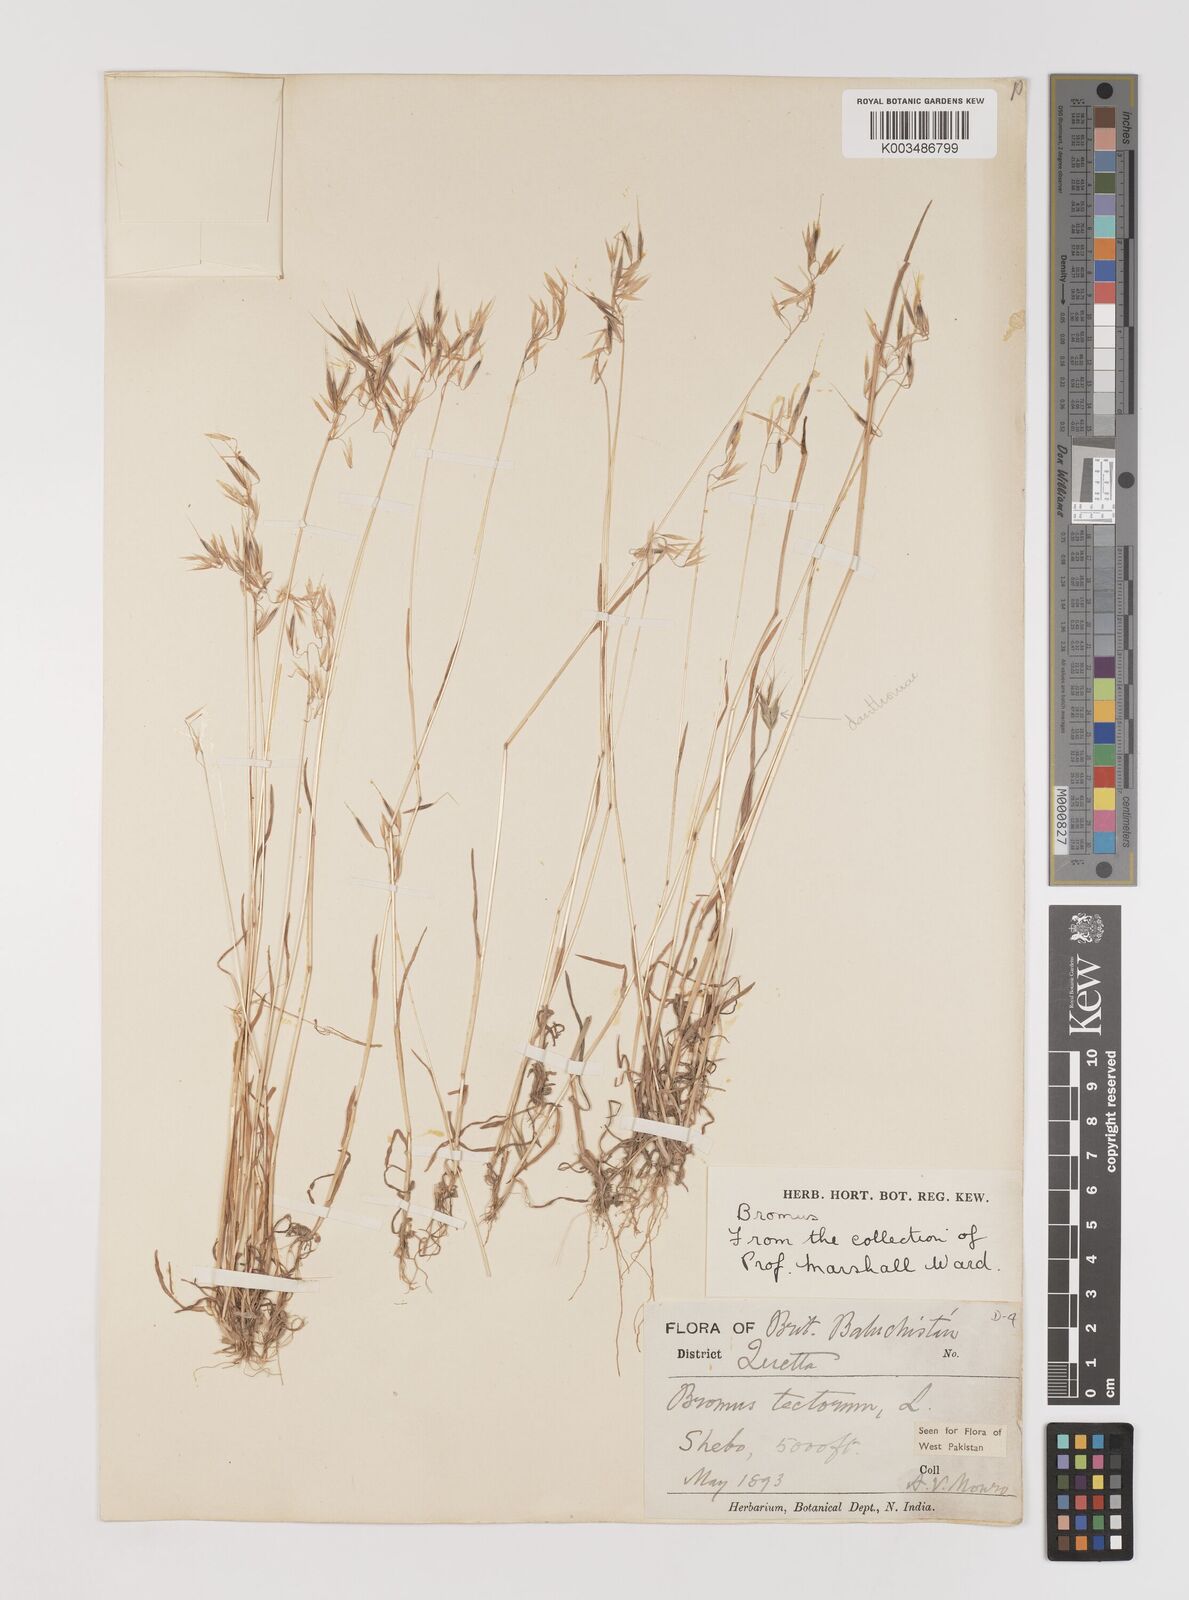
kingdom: Plantae
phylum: Tracheophyta
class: Liliopsida
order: Poales
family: Poaceae
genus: Bromus
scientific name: Bromus tectorum
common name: Cheatgrass
